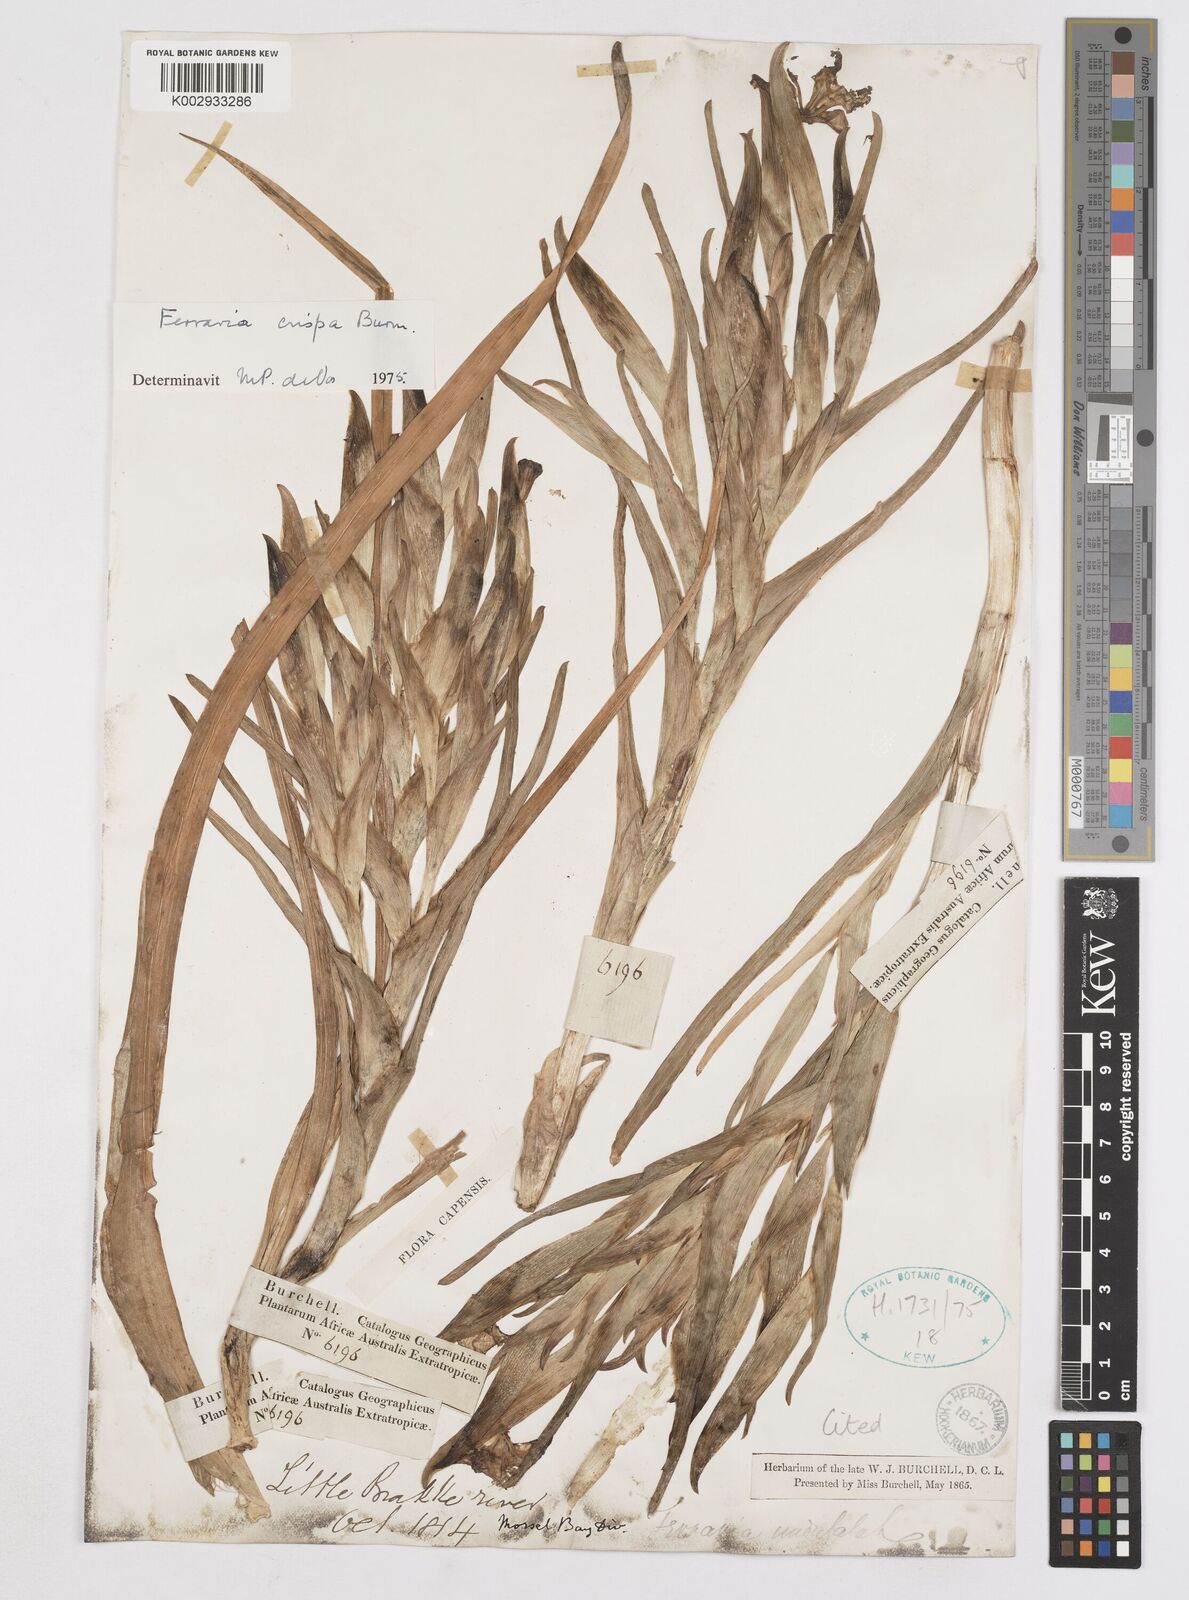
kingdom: Plantae
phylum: Tracheophyta
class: Liliopsida
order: Asparagales
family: Iridaceae
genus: Ferraria
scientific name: Ferraria crispa
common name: Black-flag
